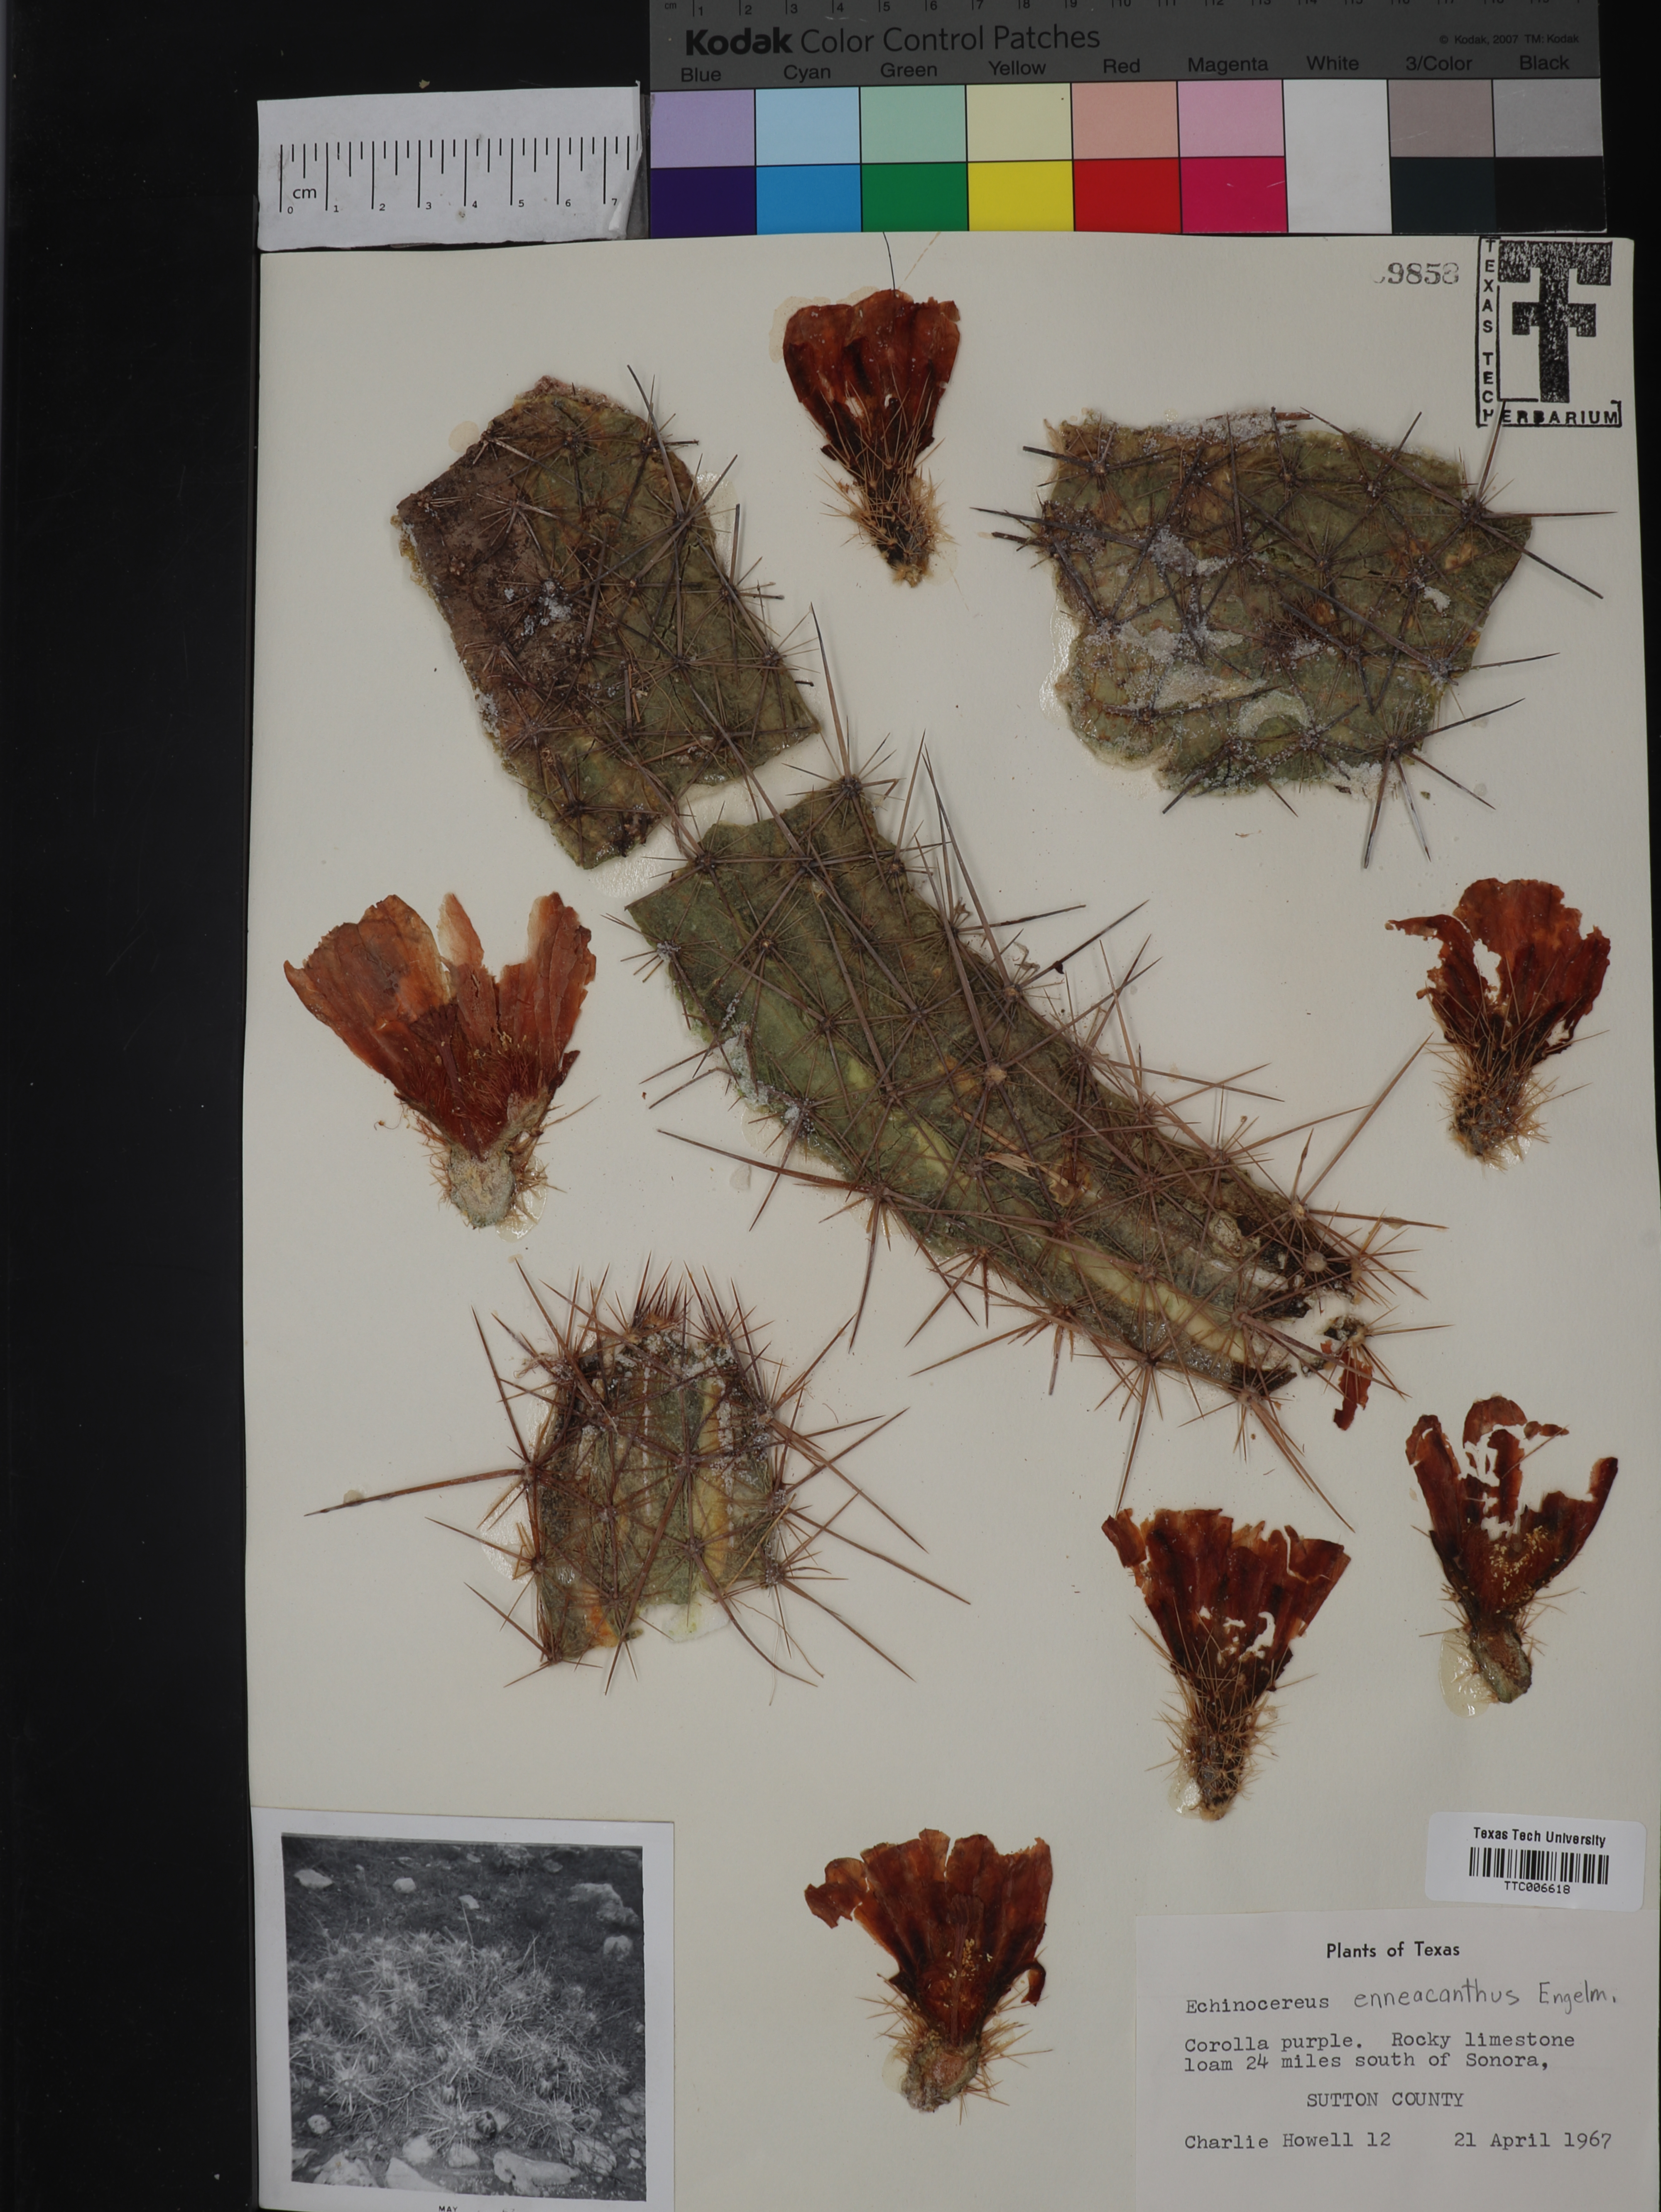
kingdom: Plantae
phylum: Tracheophyta
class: Magnoliopsida
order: Caryophyllales
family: Cactaceae
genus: Echinocereus
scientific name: Echinocereus enneacanthus
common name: Pitaya
